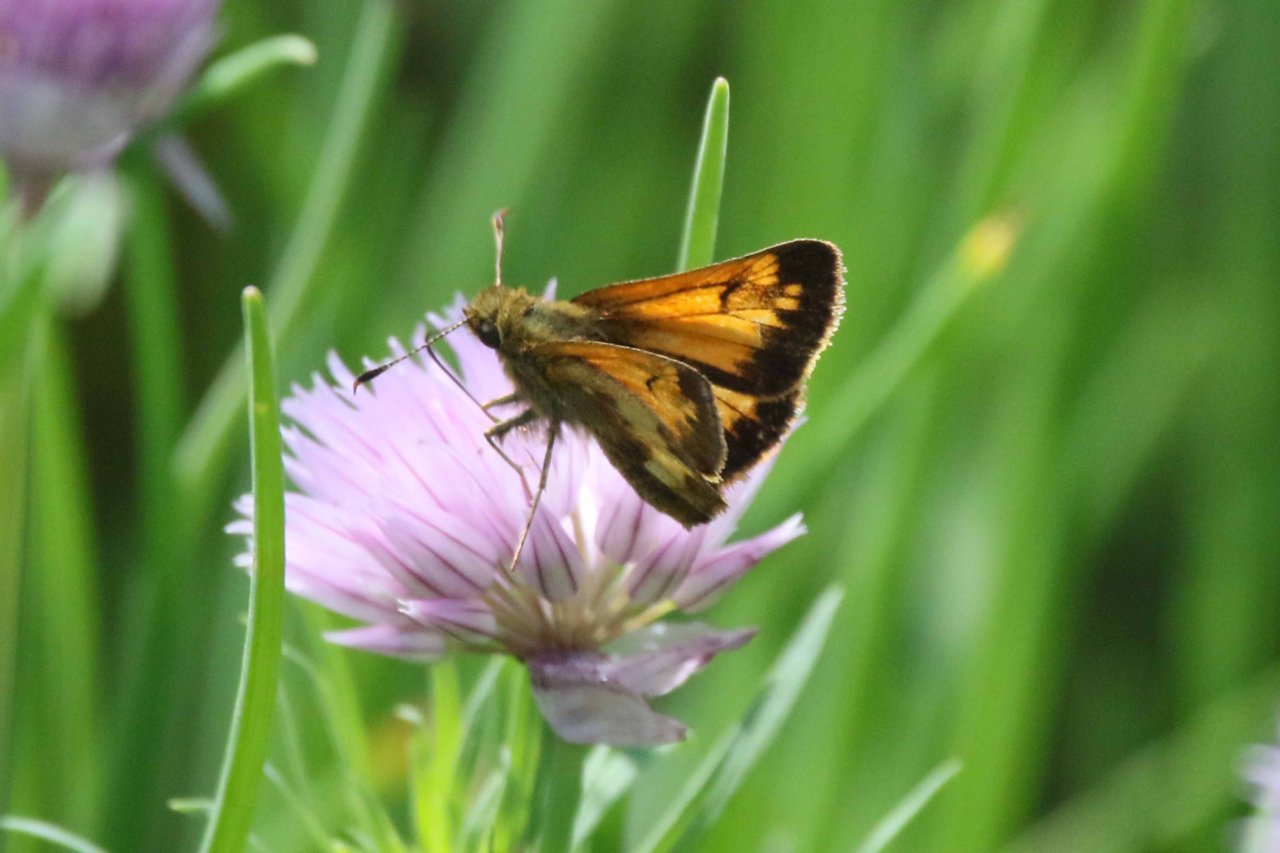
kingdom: Animalia
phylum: Arthropoda
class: Insecta
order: Lepidoptera
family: Hesperiidae
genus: Lon
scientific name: Lon hobomok
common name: Hobomok Skipper
